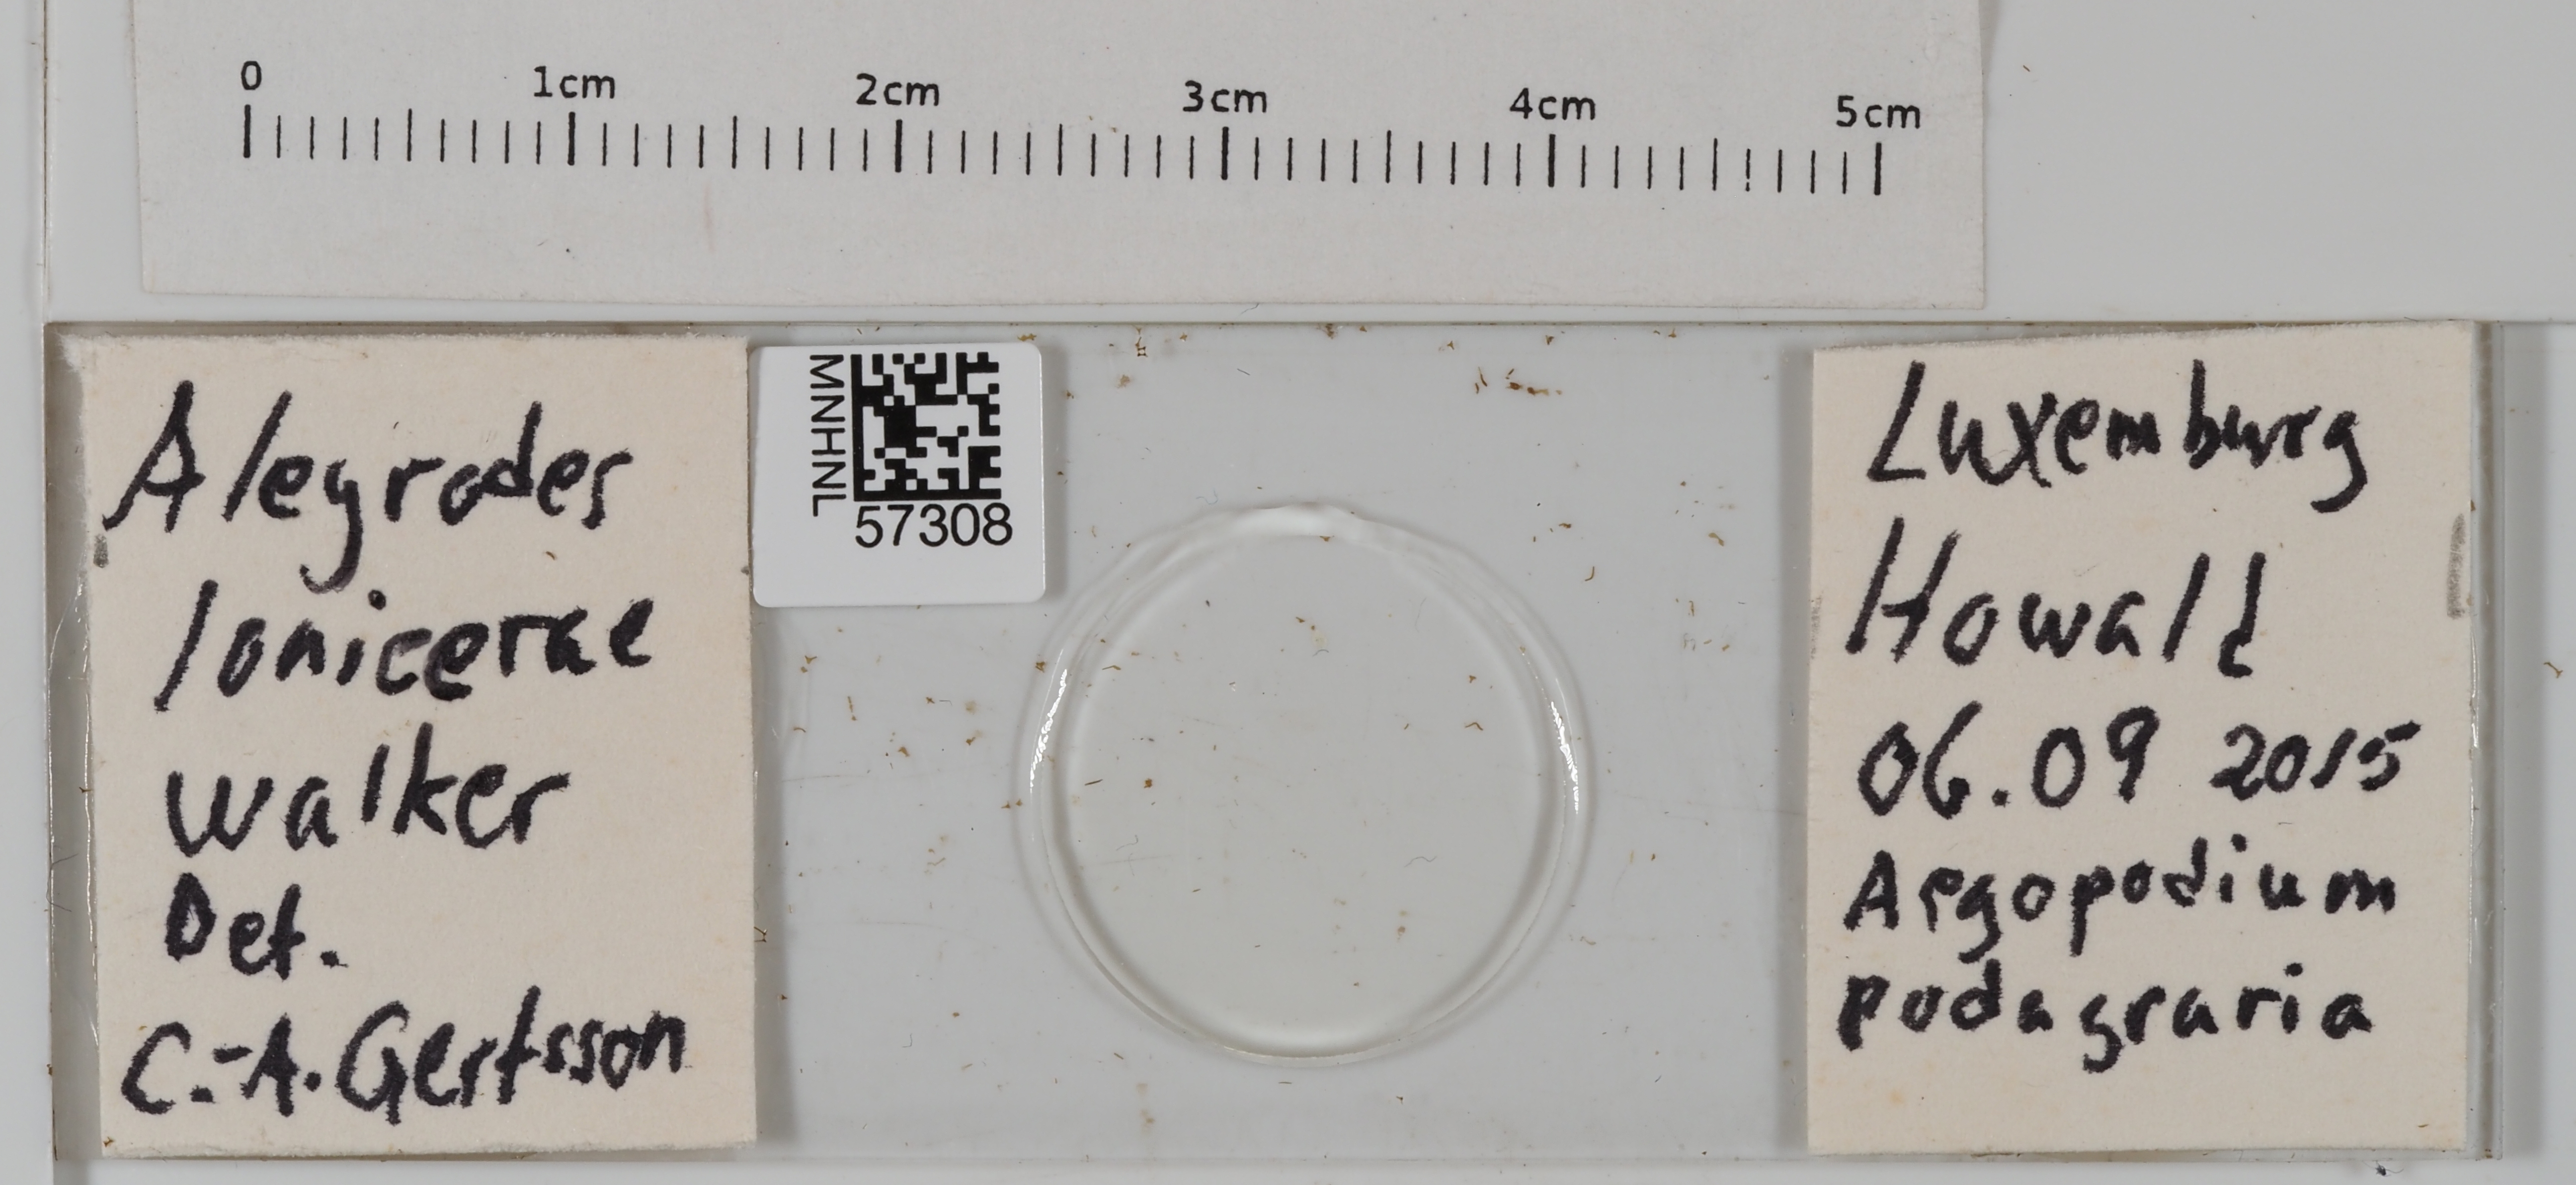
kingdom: Animalia
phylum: Arthropoda
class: Insecta
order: Hemiptera
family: Aleyrodidae
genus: Aleyrodes
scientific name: Aleyrodes lonicerae
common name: Whitefly
